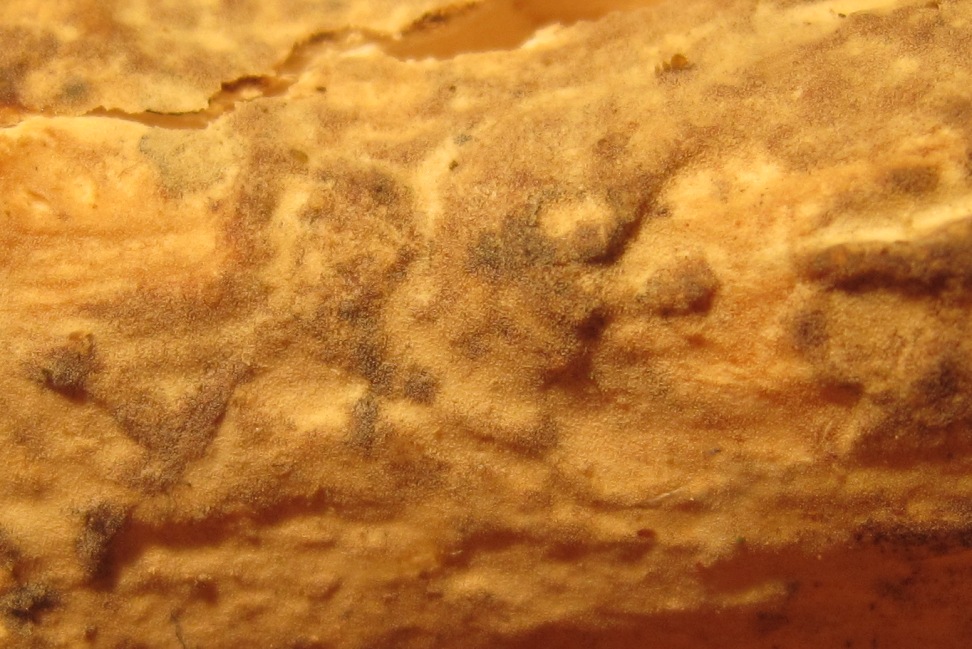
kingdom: Fungi
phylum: Basidiomycota
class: Agaricomycetes
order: Corticiales
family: Vuilleminiaceae
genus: Vuilleminia
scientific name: Vuilleminia comedens
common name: almindelig barksprænger
